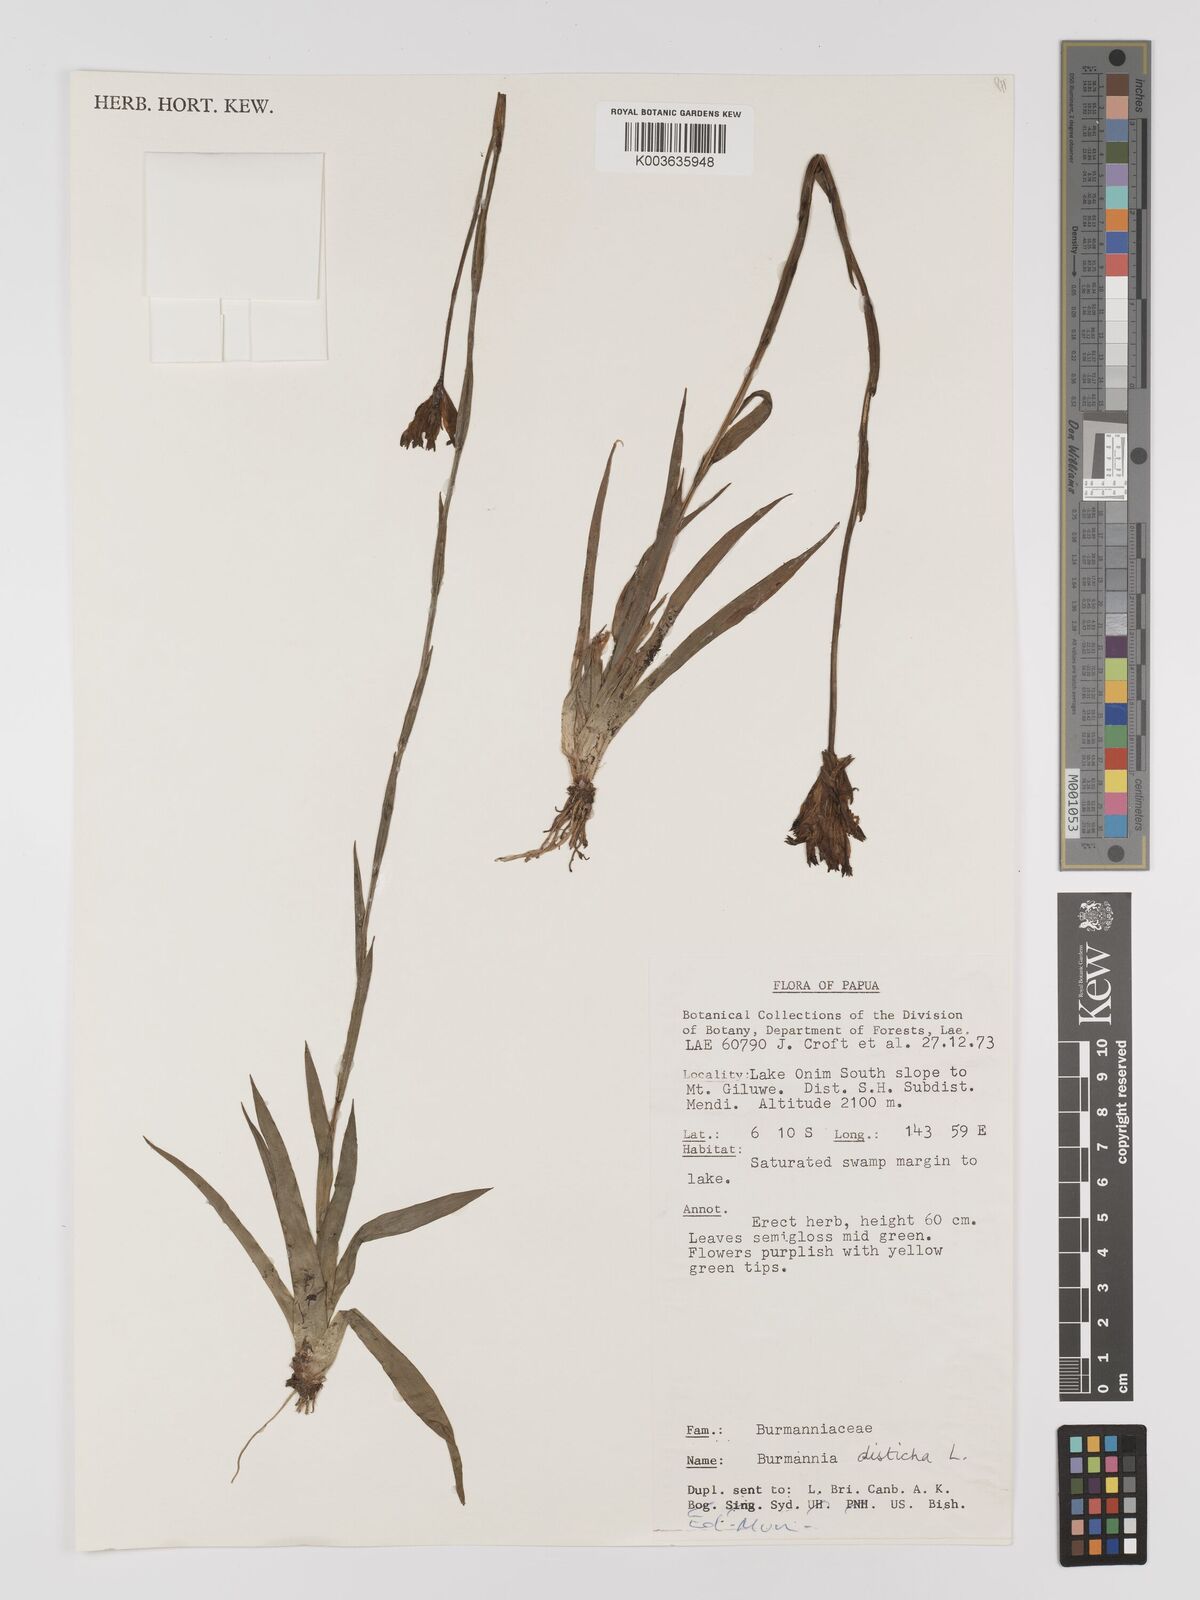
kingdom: Plantae
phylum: Tracheophyta
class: Liliopsida
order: Dioscoreales
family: Burmanniaceae
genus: Burmannia
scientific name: Burmannia disticha
